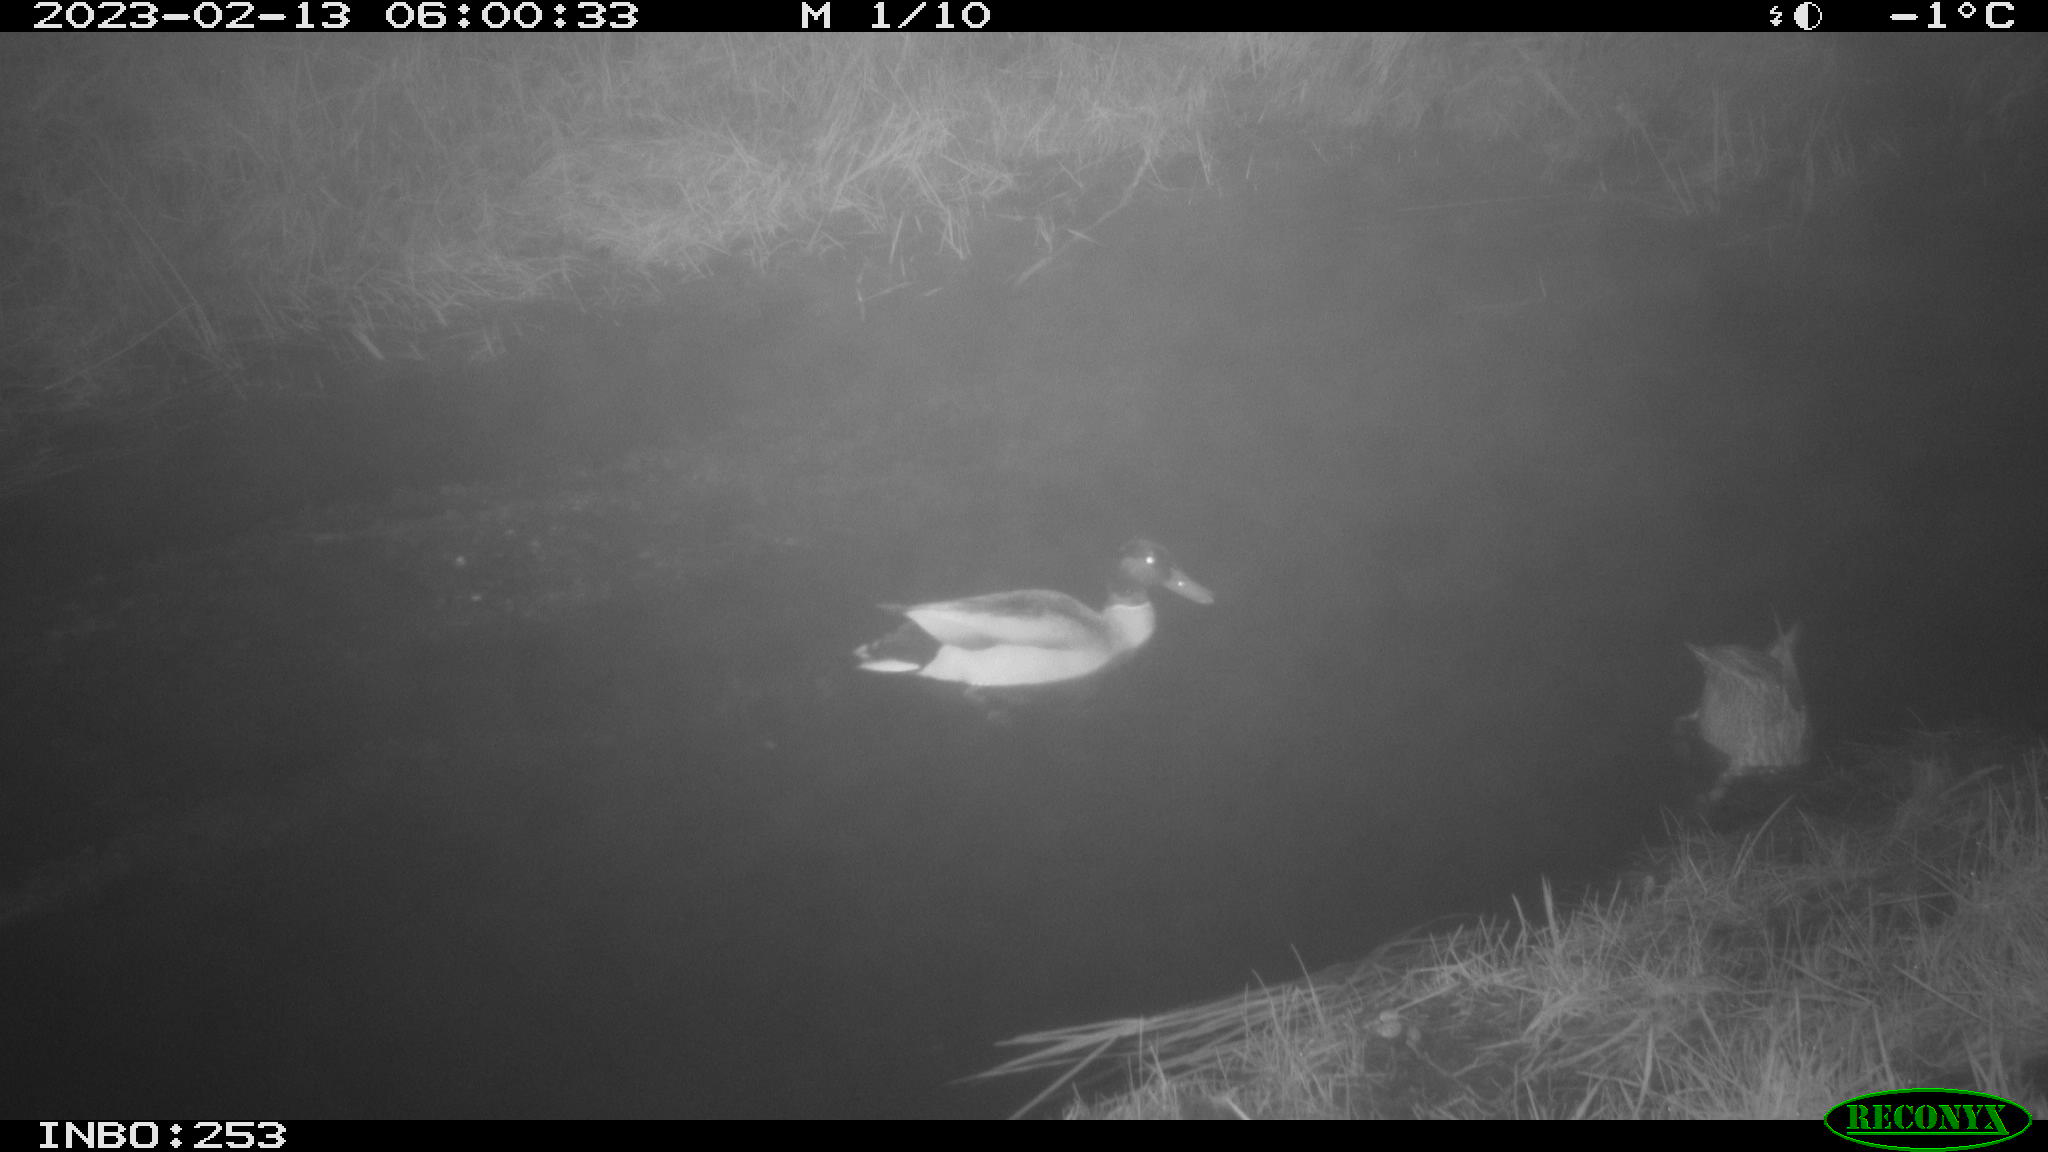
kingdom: Animalia
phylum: Chordata
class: Aves
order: Anseriformes
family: Anatidae
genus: Anas
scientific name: Anas
